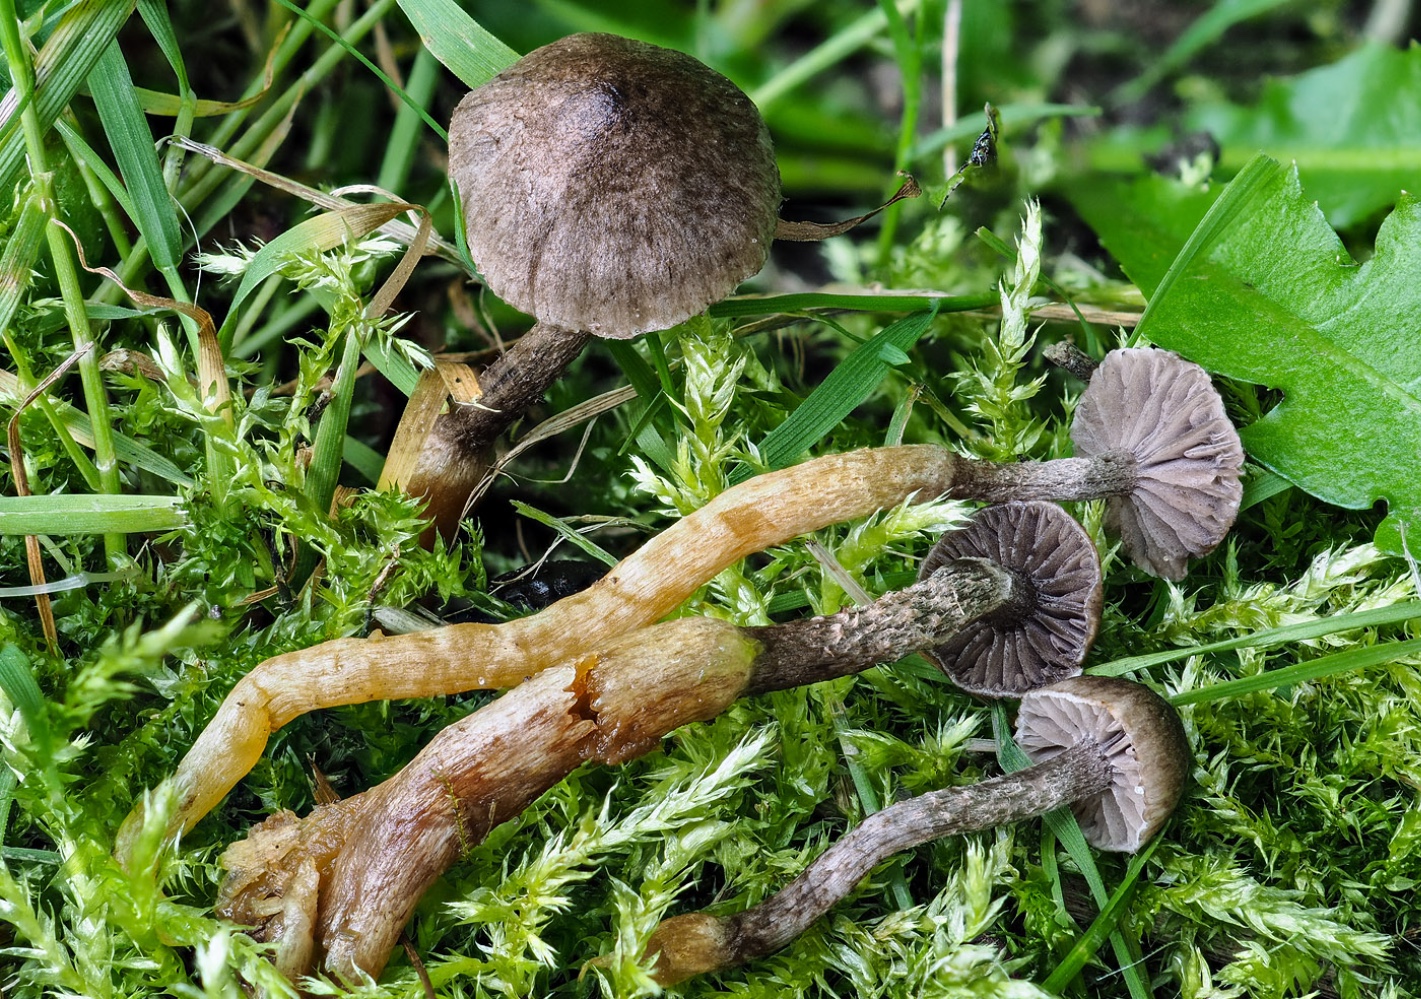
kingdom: Fungi
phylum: Basidiomycota
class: Agaricomycetes
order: Agaricales
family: Squamanitaceae
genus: Dissoderma
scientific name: Dissoderma galerinicola
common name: hjelmhat-knoldfod
